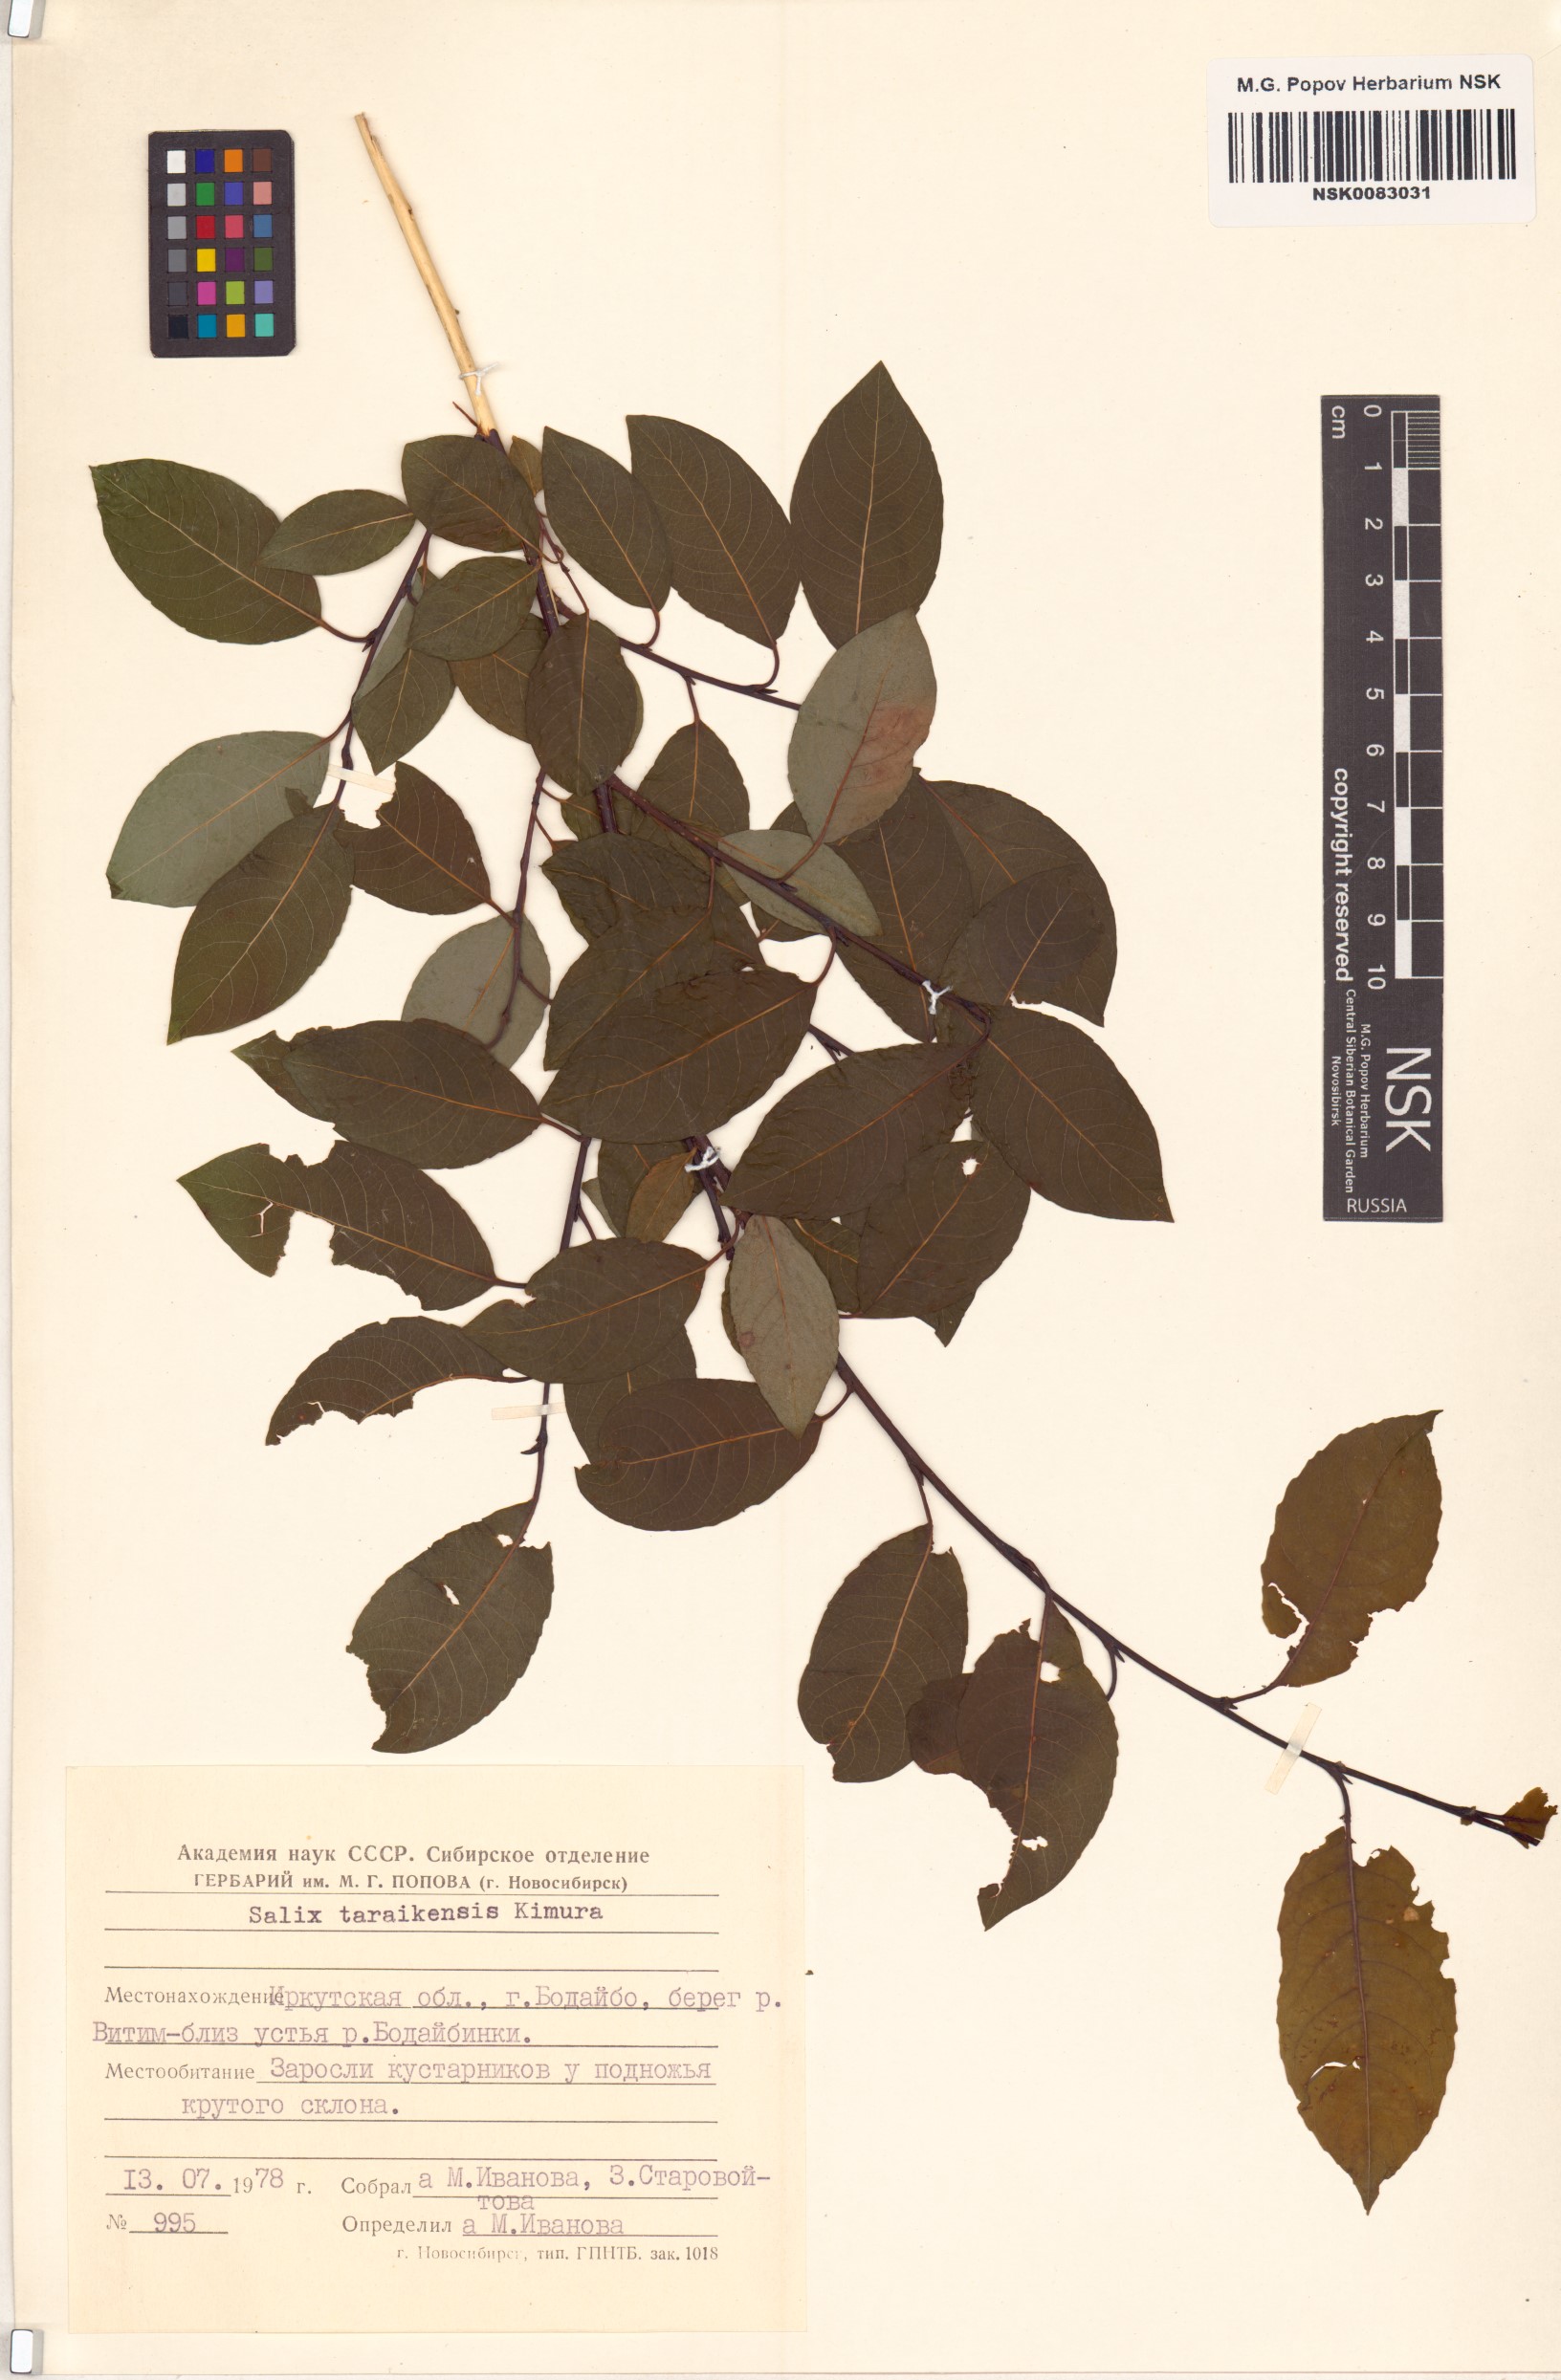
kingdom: Plantae
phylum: Tracheophyta
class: Magnoliopsida
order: Malpighiales
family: Salicaceae
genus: Salix
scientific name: Salix taraikensis
